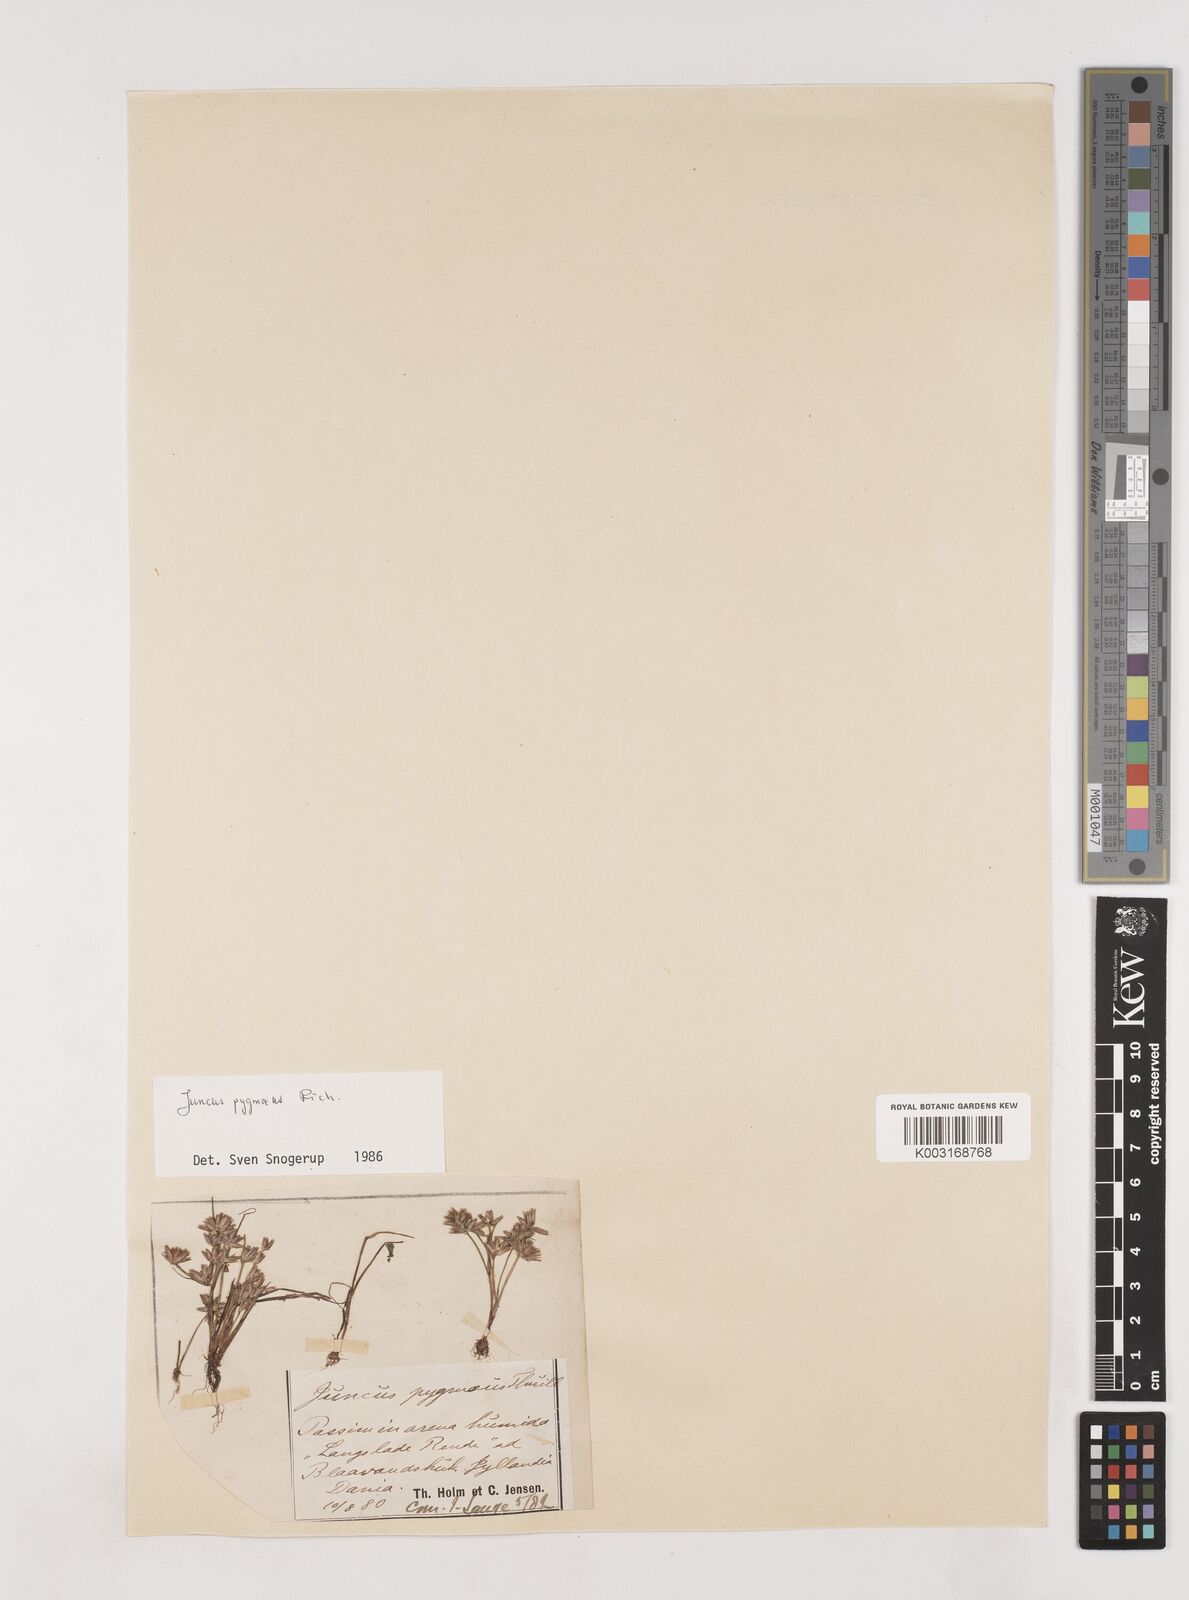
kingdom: Plantae
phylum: Tracheophyta
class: Liliopsida
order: Poales
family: Juncaceae
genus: Juncus
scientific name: Juncus pygmaeus
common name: Pigmy rush
